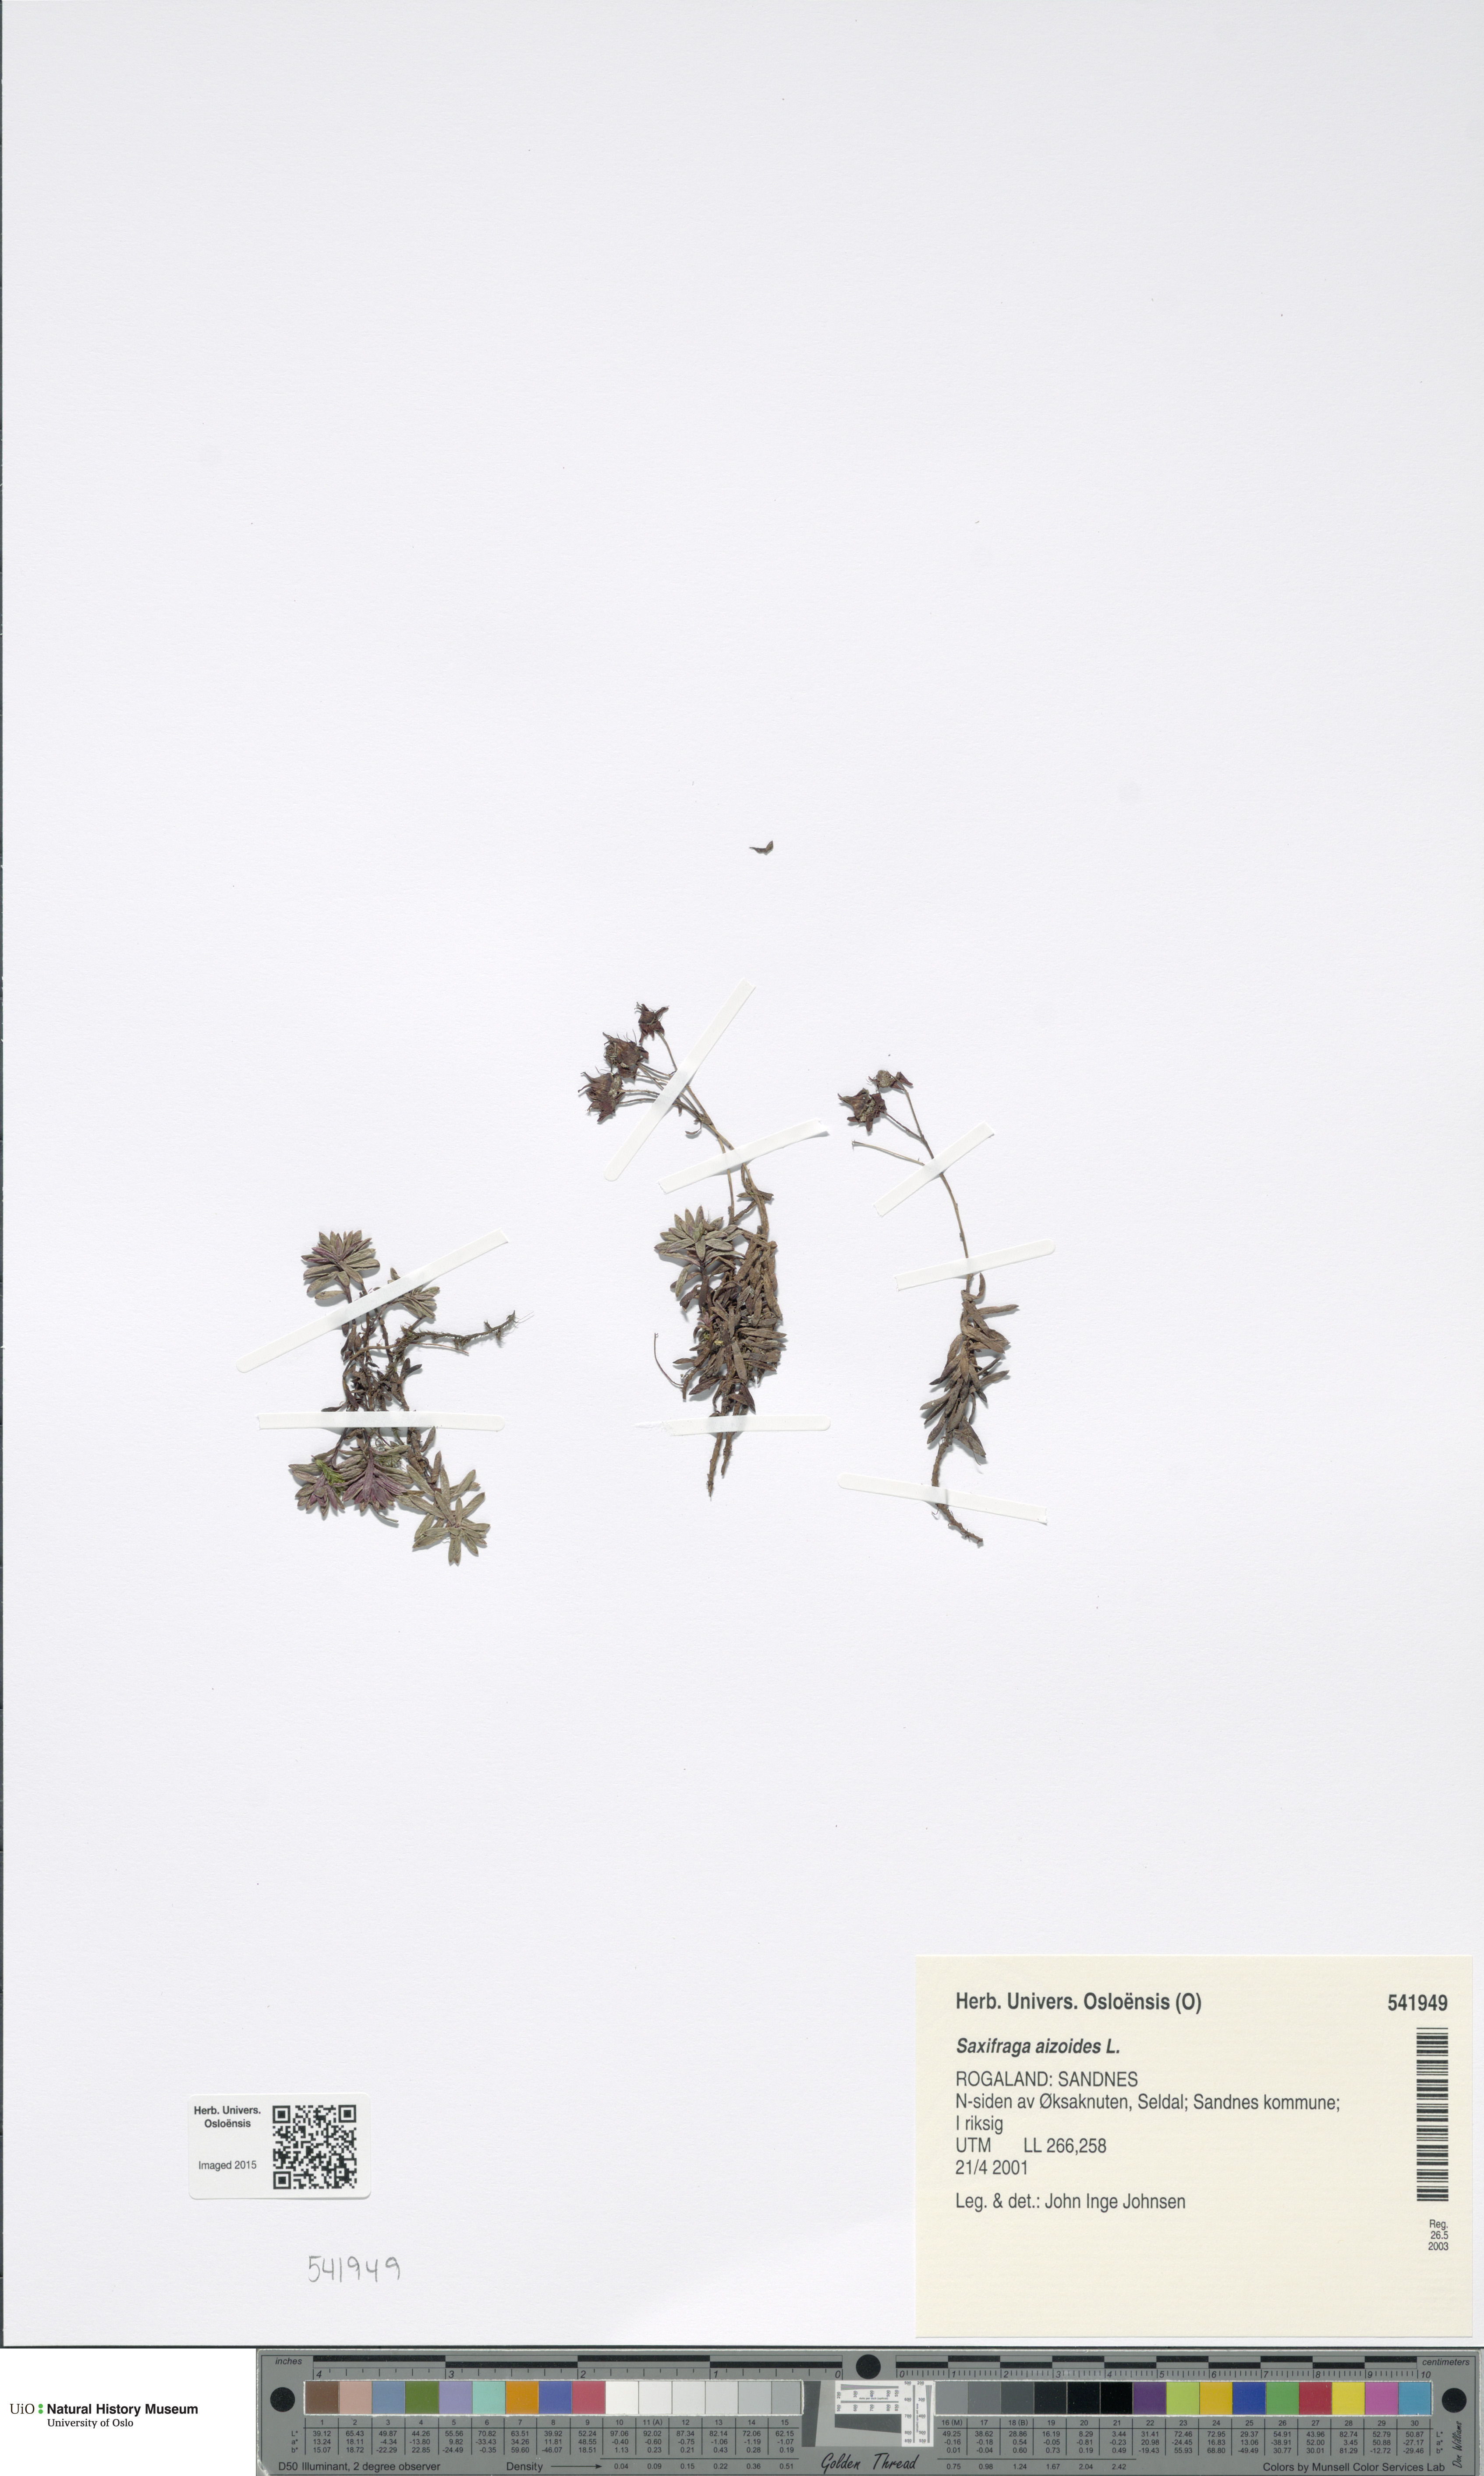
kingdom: Plantae
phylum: Tracheophyta
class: Magnoliopsida
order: Saxifragales
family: Saxifragaceae
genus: Saxifraga
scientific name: Saxifraga aizoides
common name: Yellow mountain saxifrage
